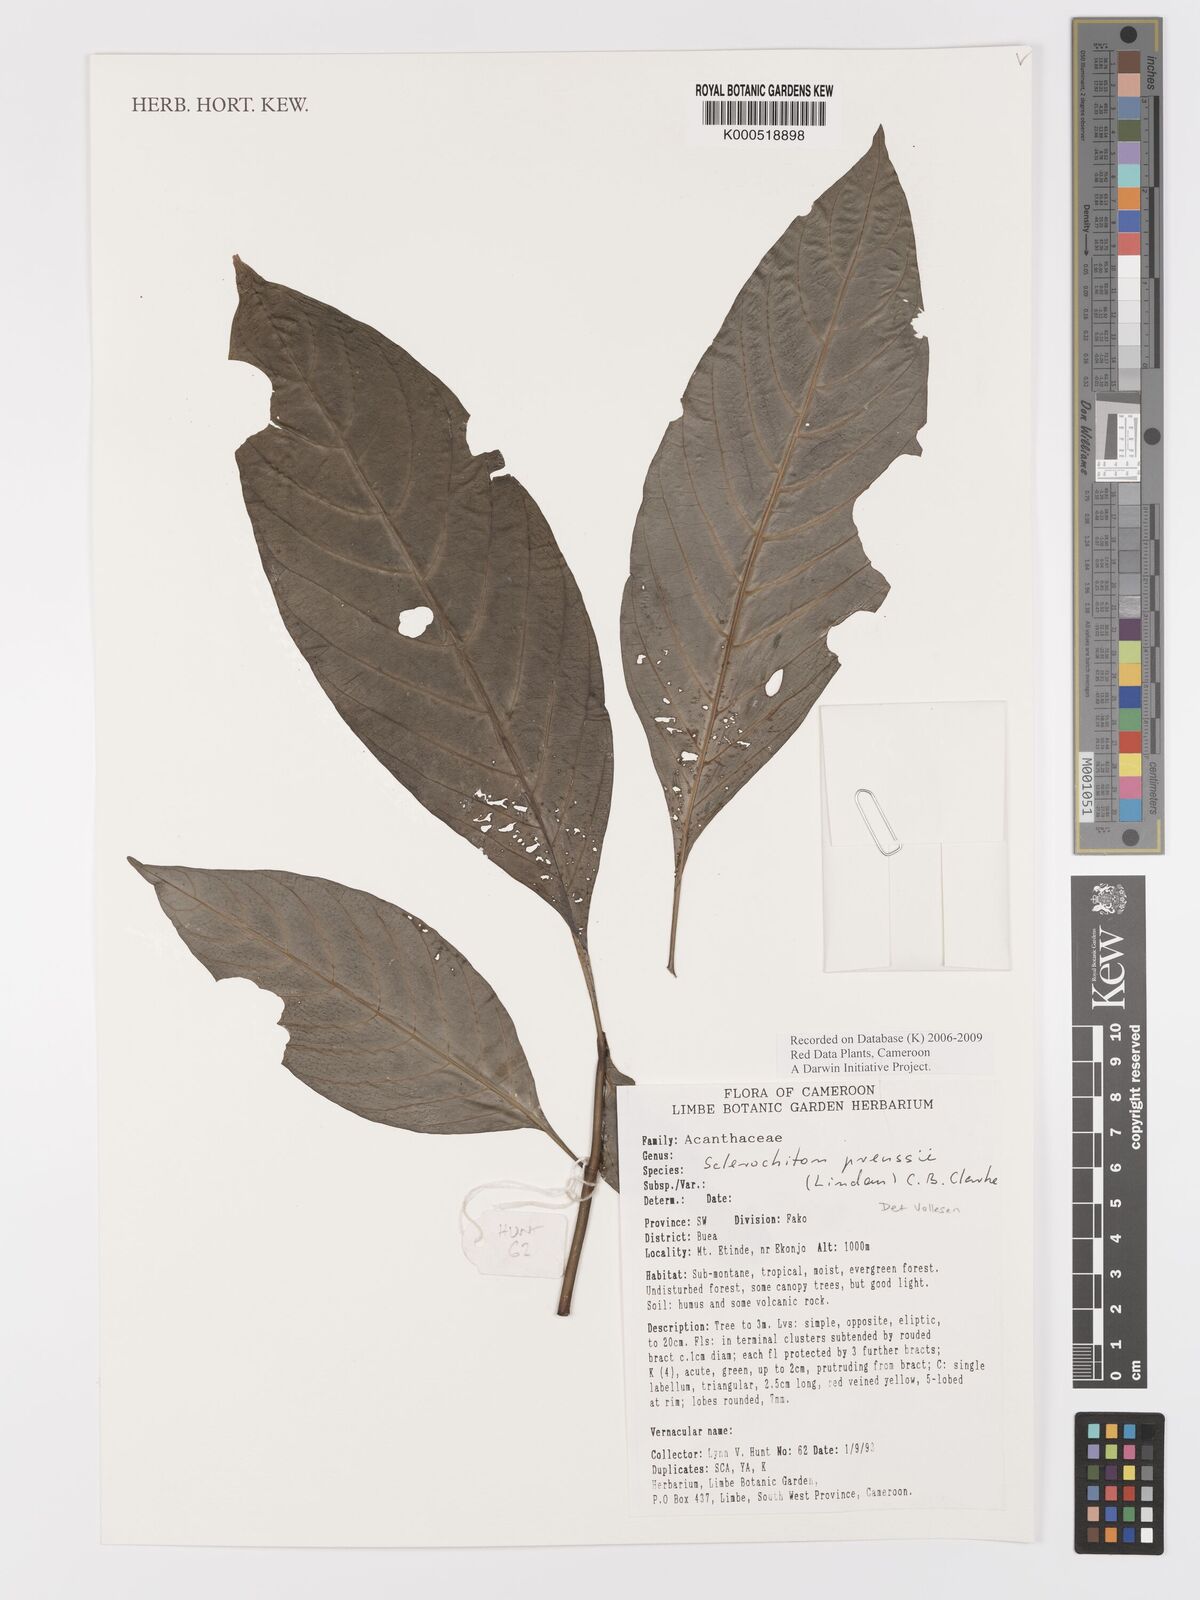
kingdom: Plantae
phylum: Tracheophyta
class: Magnoliopsida
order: Lamiales
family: Acanthaceae
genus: Sclerochiton
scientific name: Sclerochiton preussii
